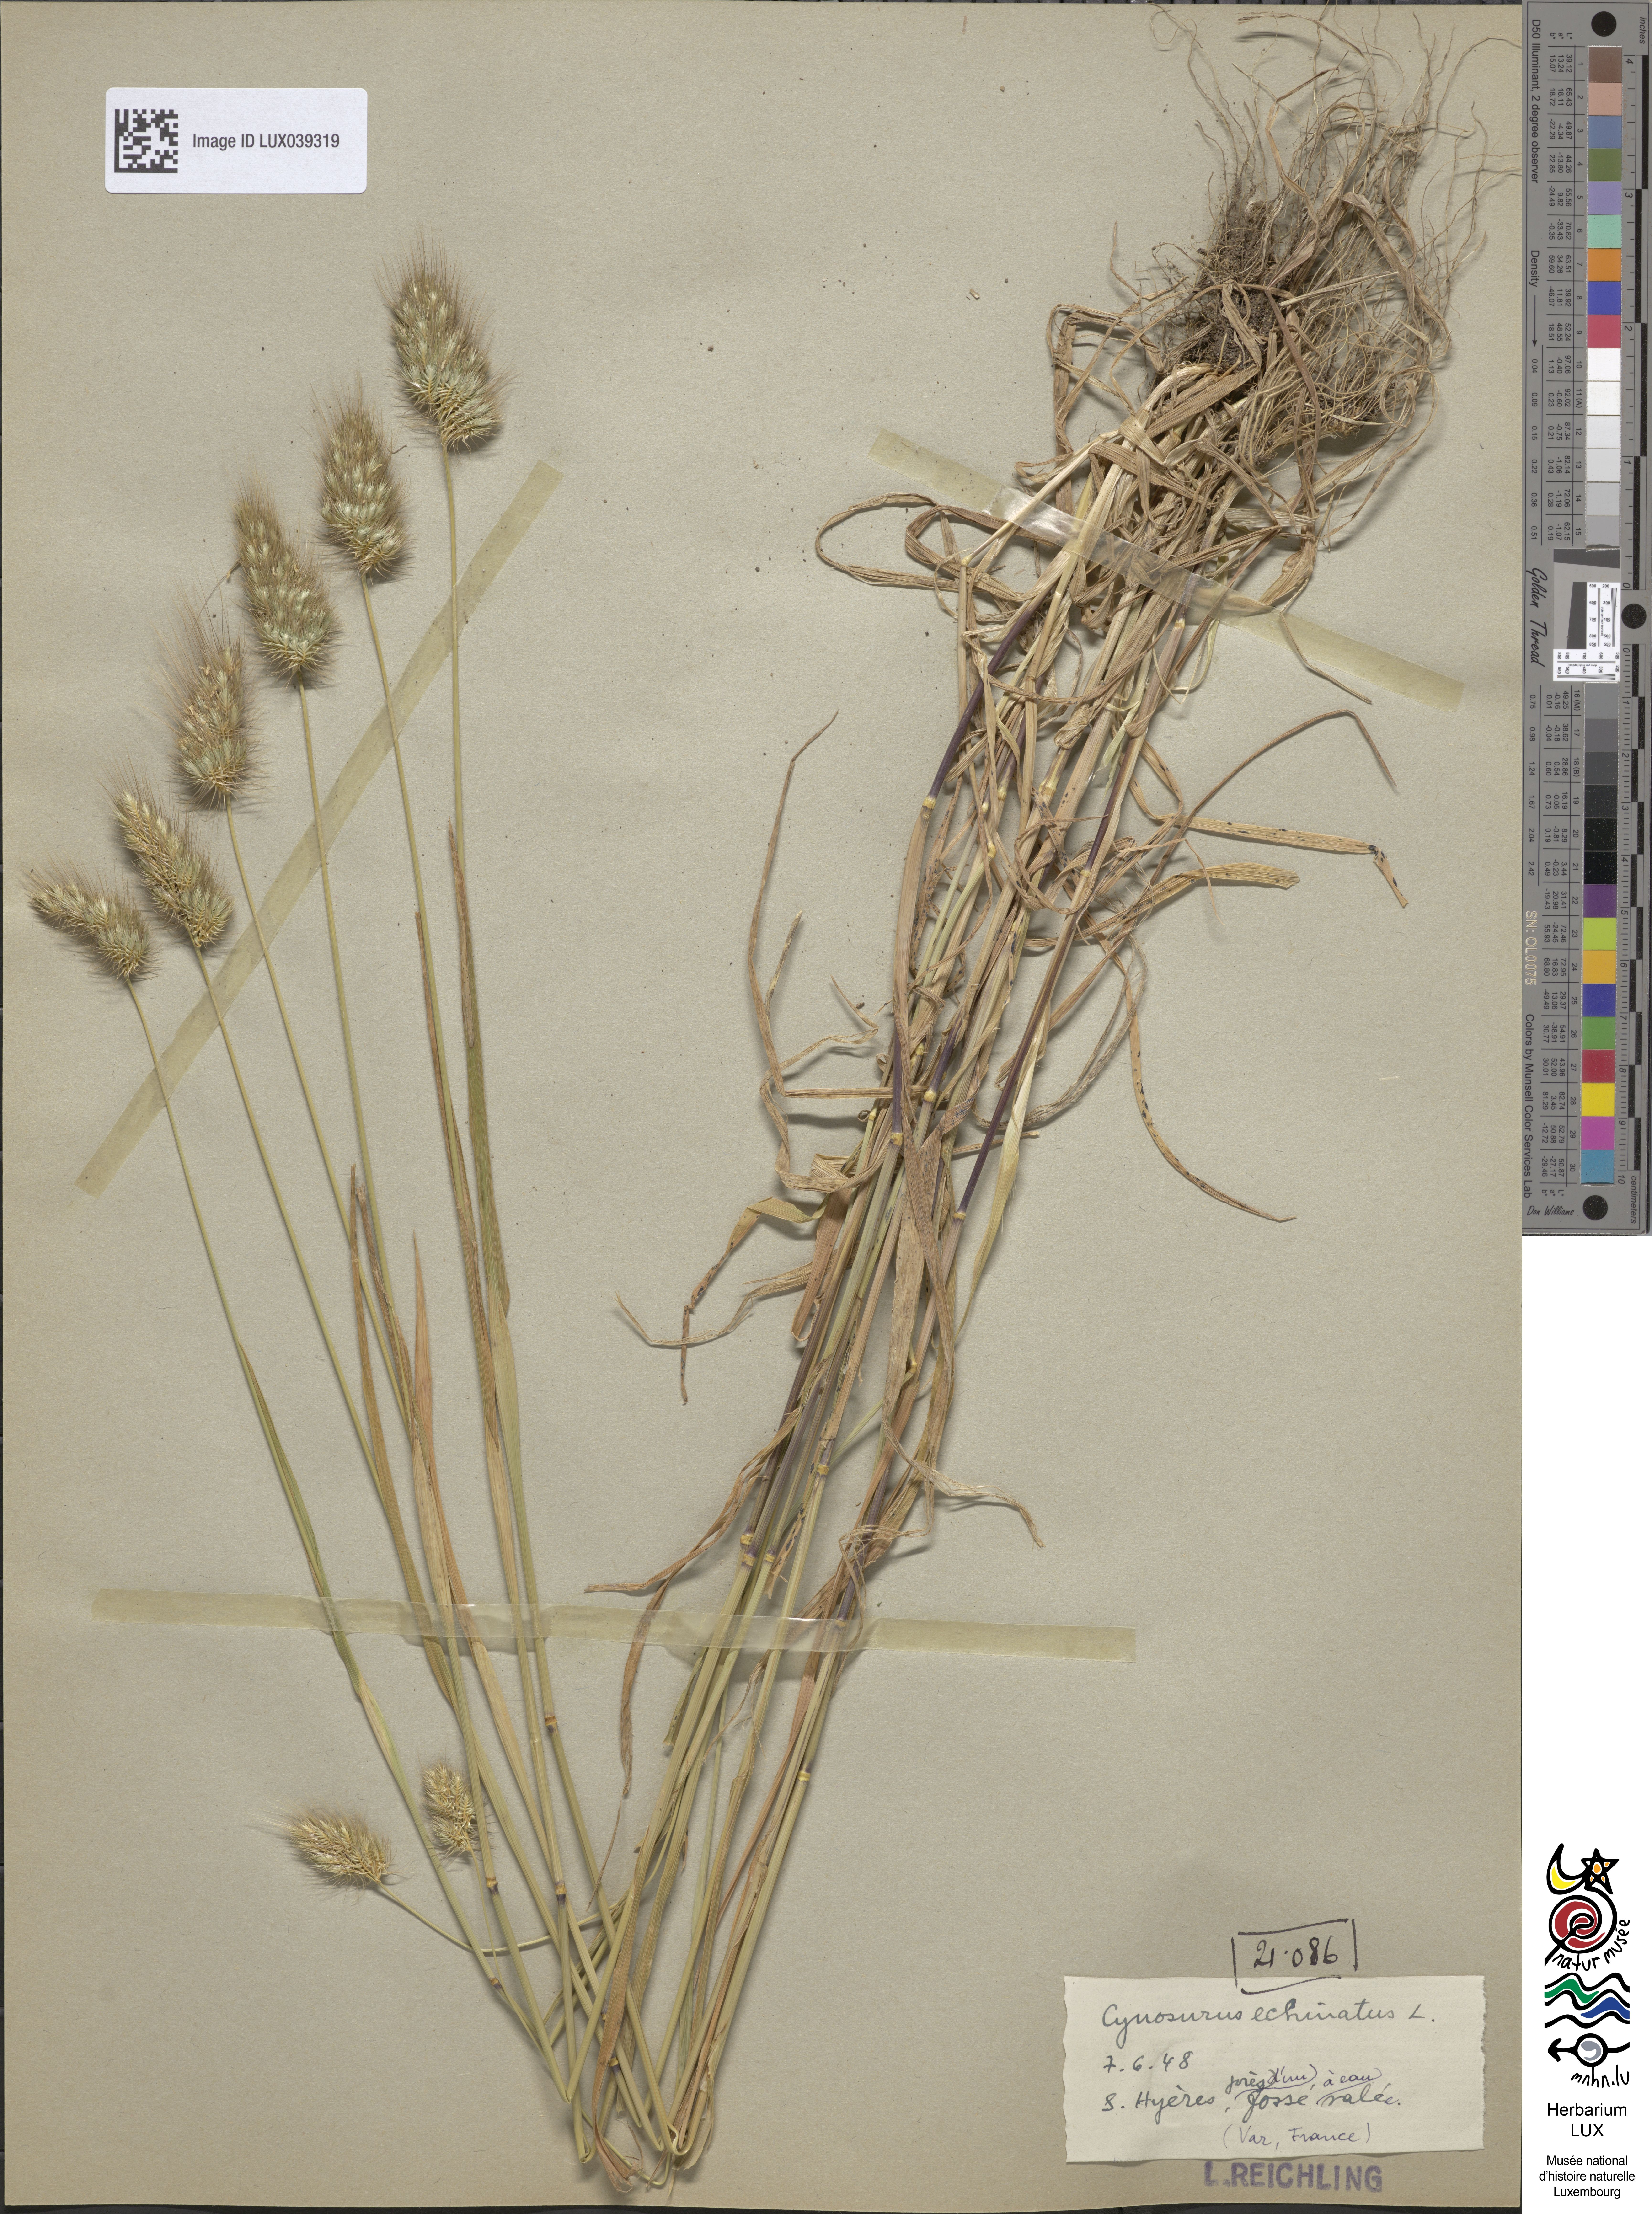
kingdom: Plantae
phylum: Tracheophyta
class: Liliopsida
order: Poales
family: Poaceae
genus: Cynosurus
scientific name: Cynosurus echinatus
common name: Rough dog's-tail
